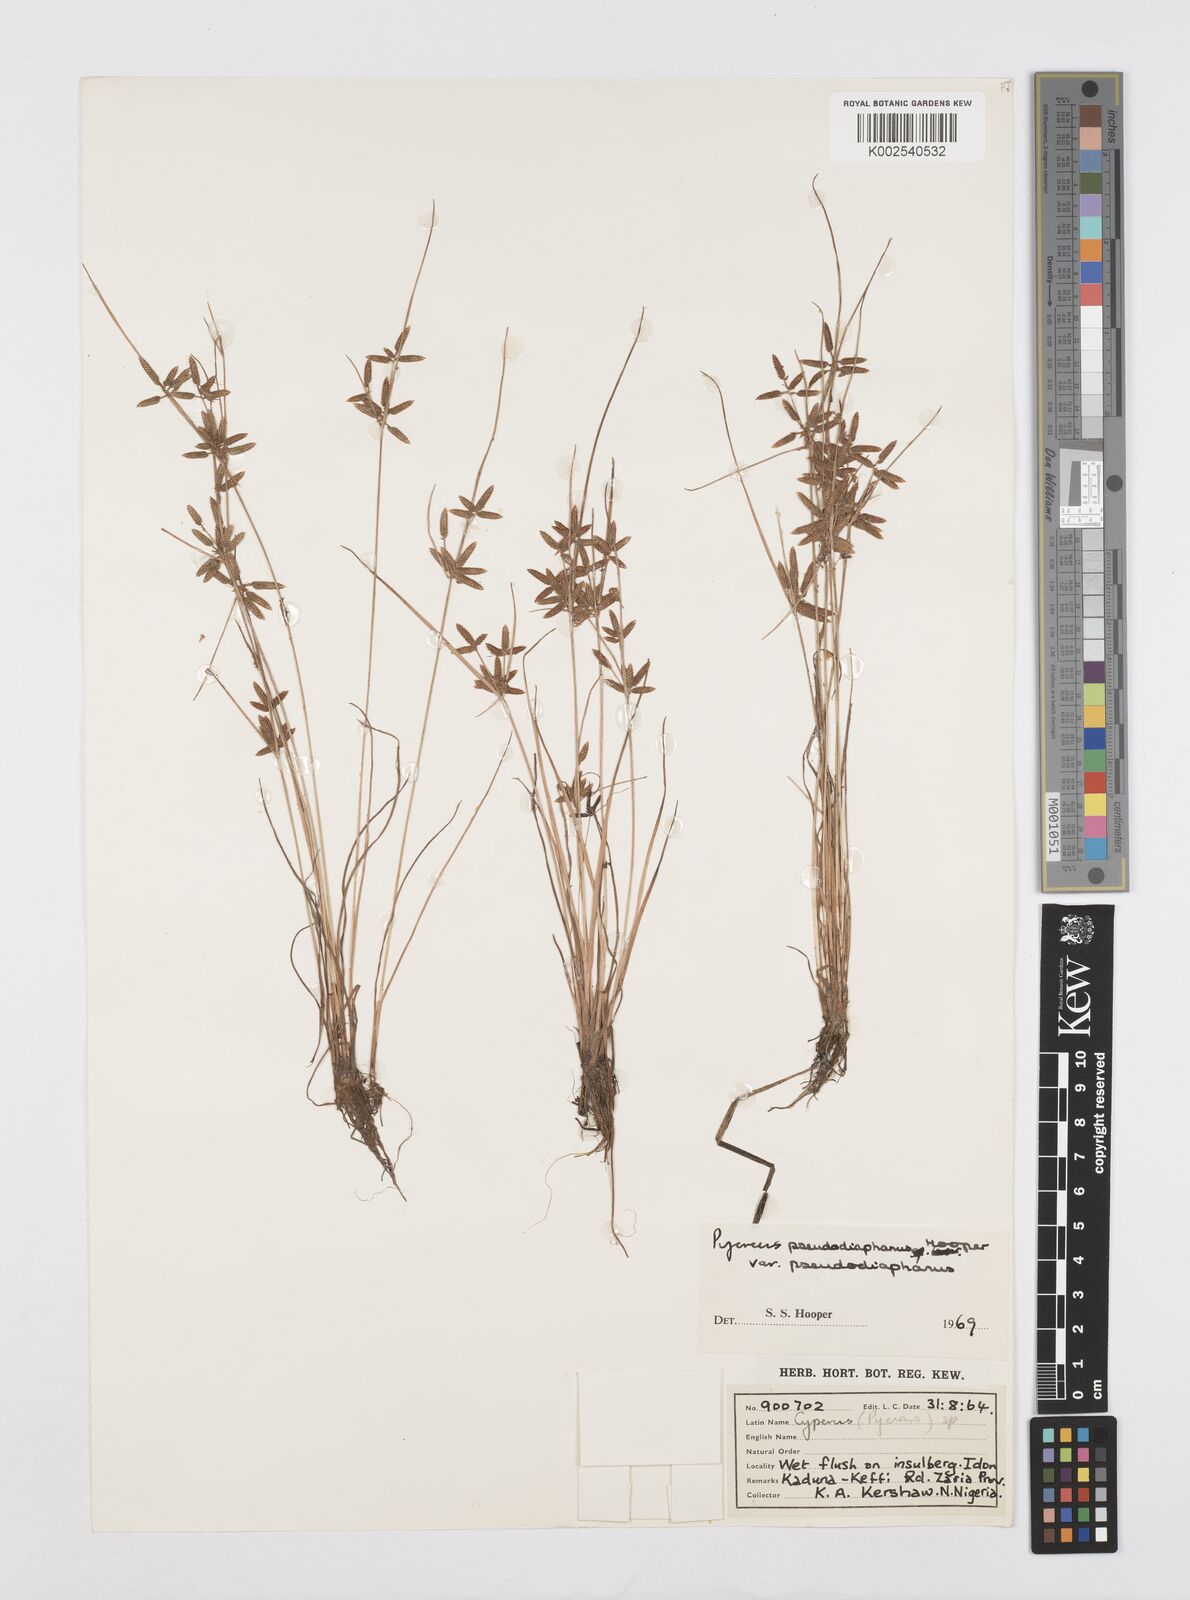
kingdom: Plantae
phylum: Tracheophyta
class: Liliopsida
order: Poales
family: Cyperaceae
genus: Cyperus
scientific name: Cyperus pseudodiaphanus
